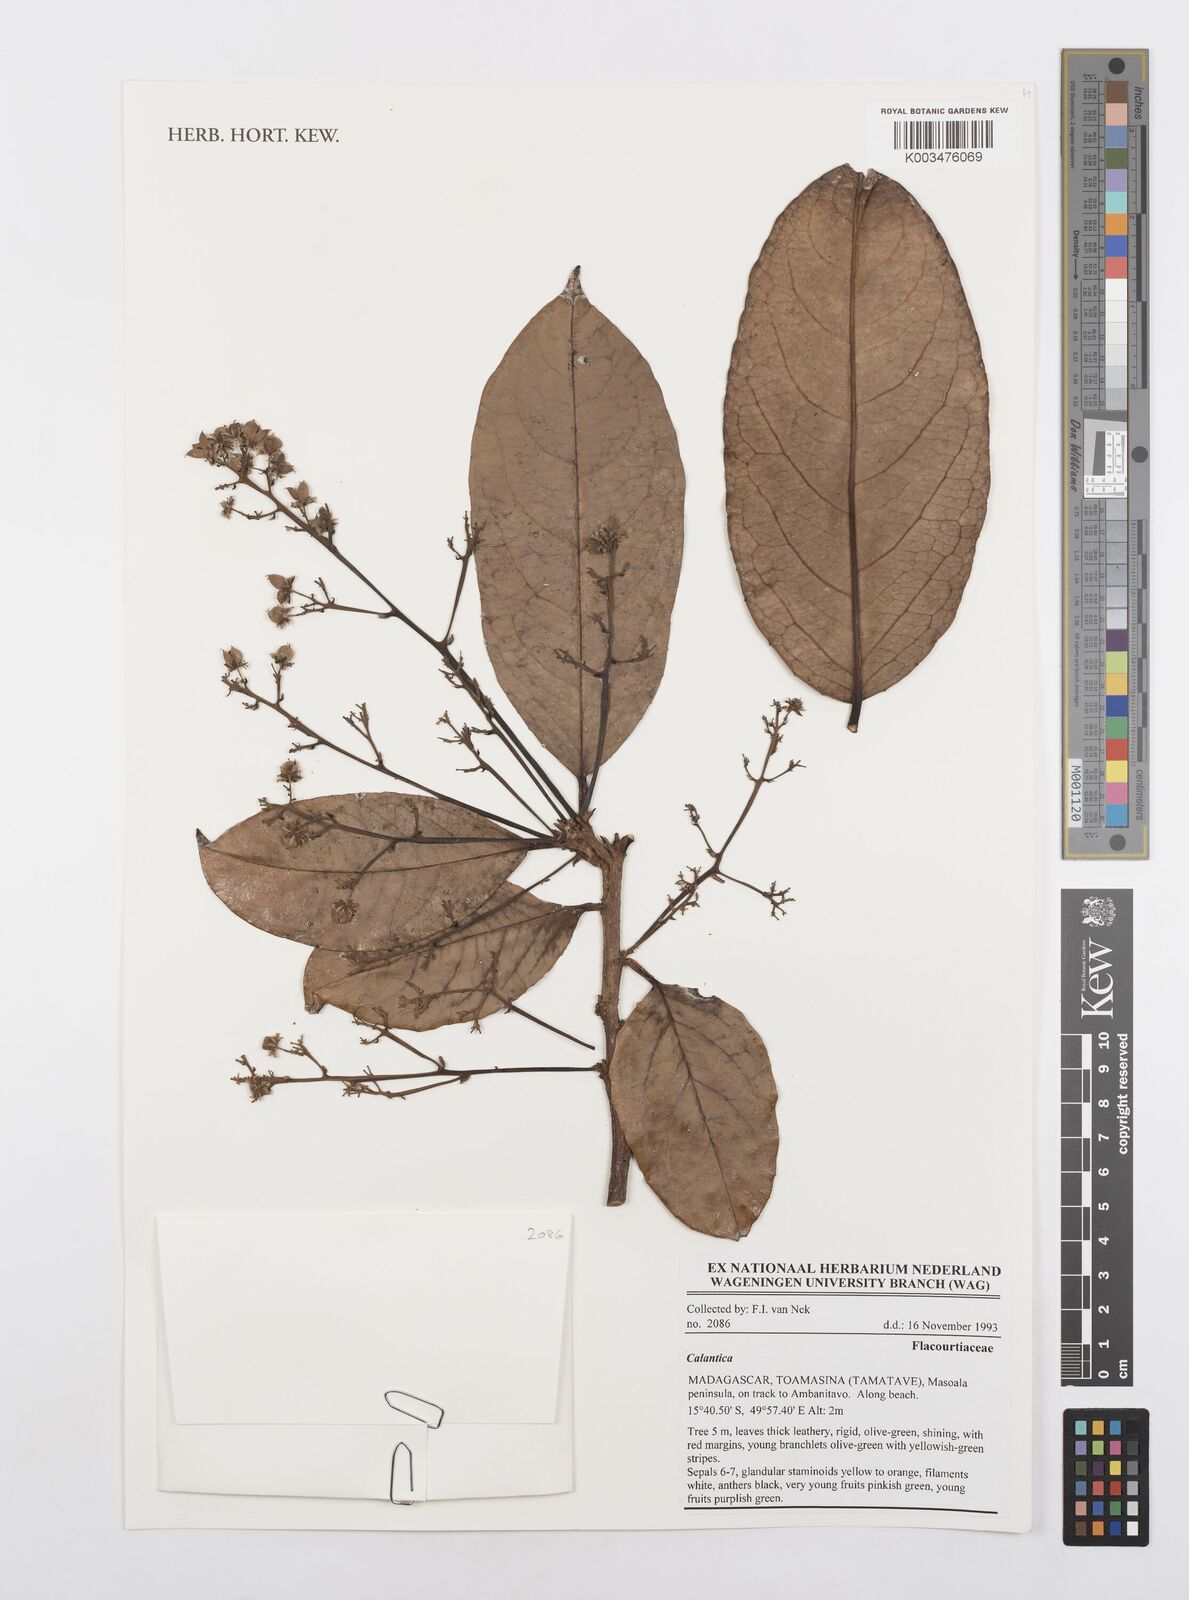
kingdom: Plantae
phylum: Tracheophyta
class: Magnoliopsida
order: Malpighiales
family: Salicaceae
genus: Calantica
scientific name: Calantica
